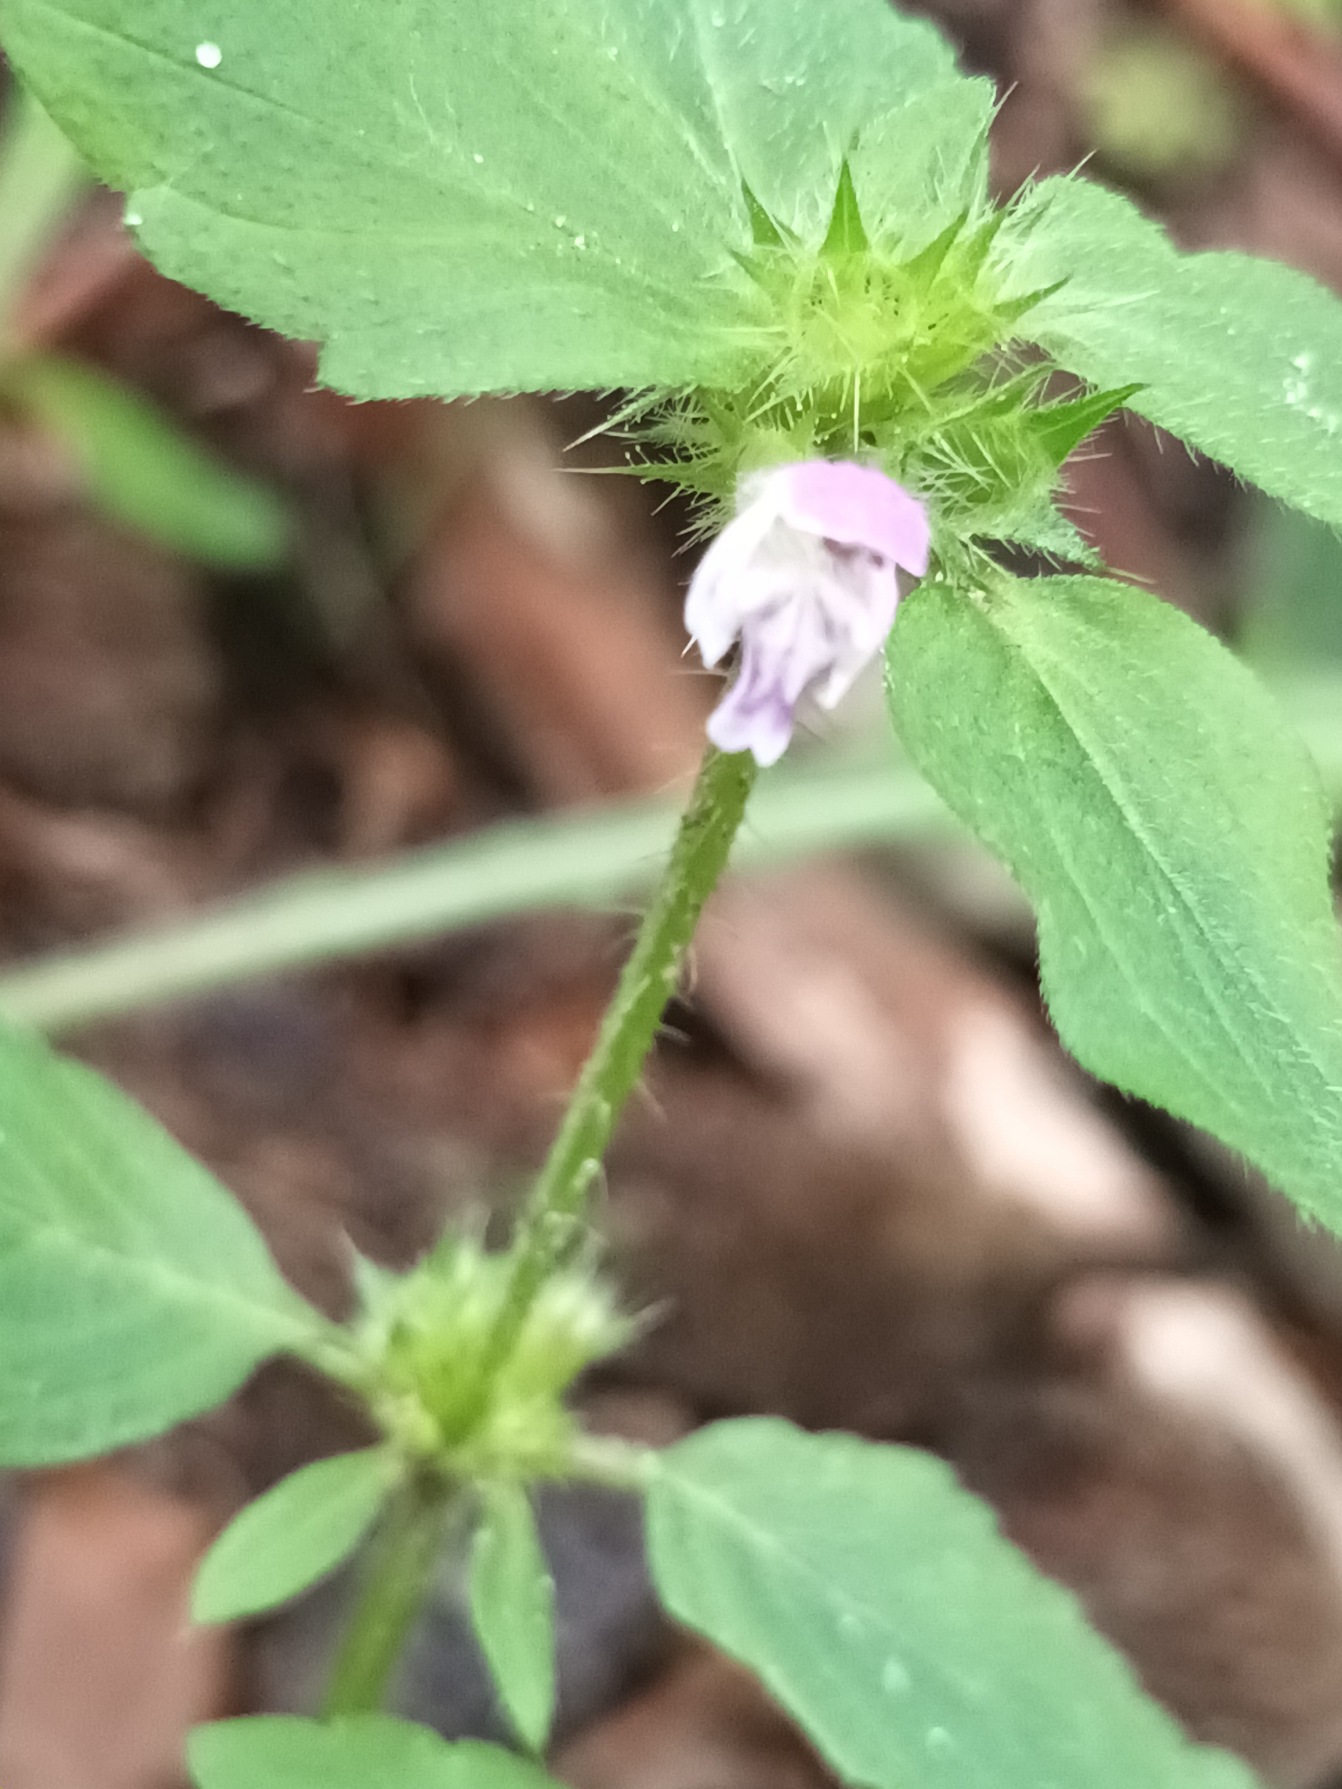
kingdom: Plantae
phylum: Tracheophyta
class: Magnoliopsida
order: Lamiales
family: Lamiaceae
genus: Galeopsis
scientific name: Galeopsis bifida
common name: Skov-hanekro
